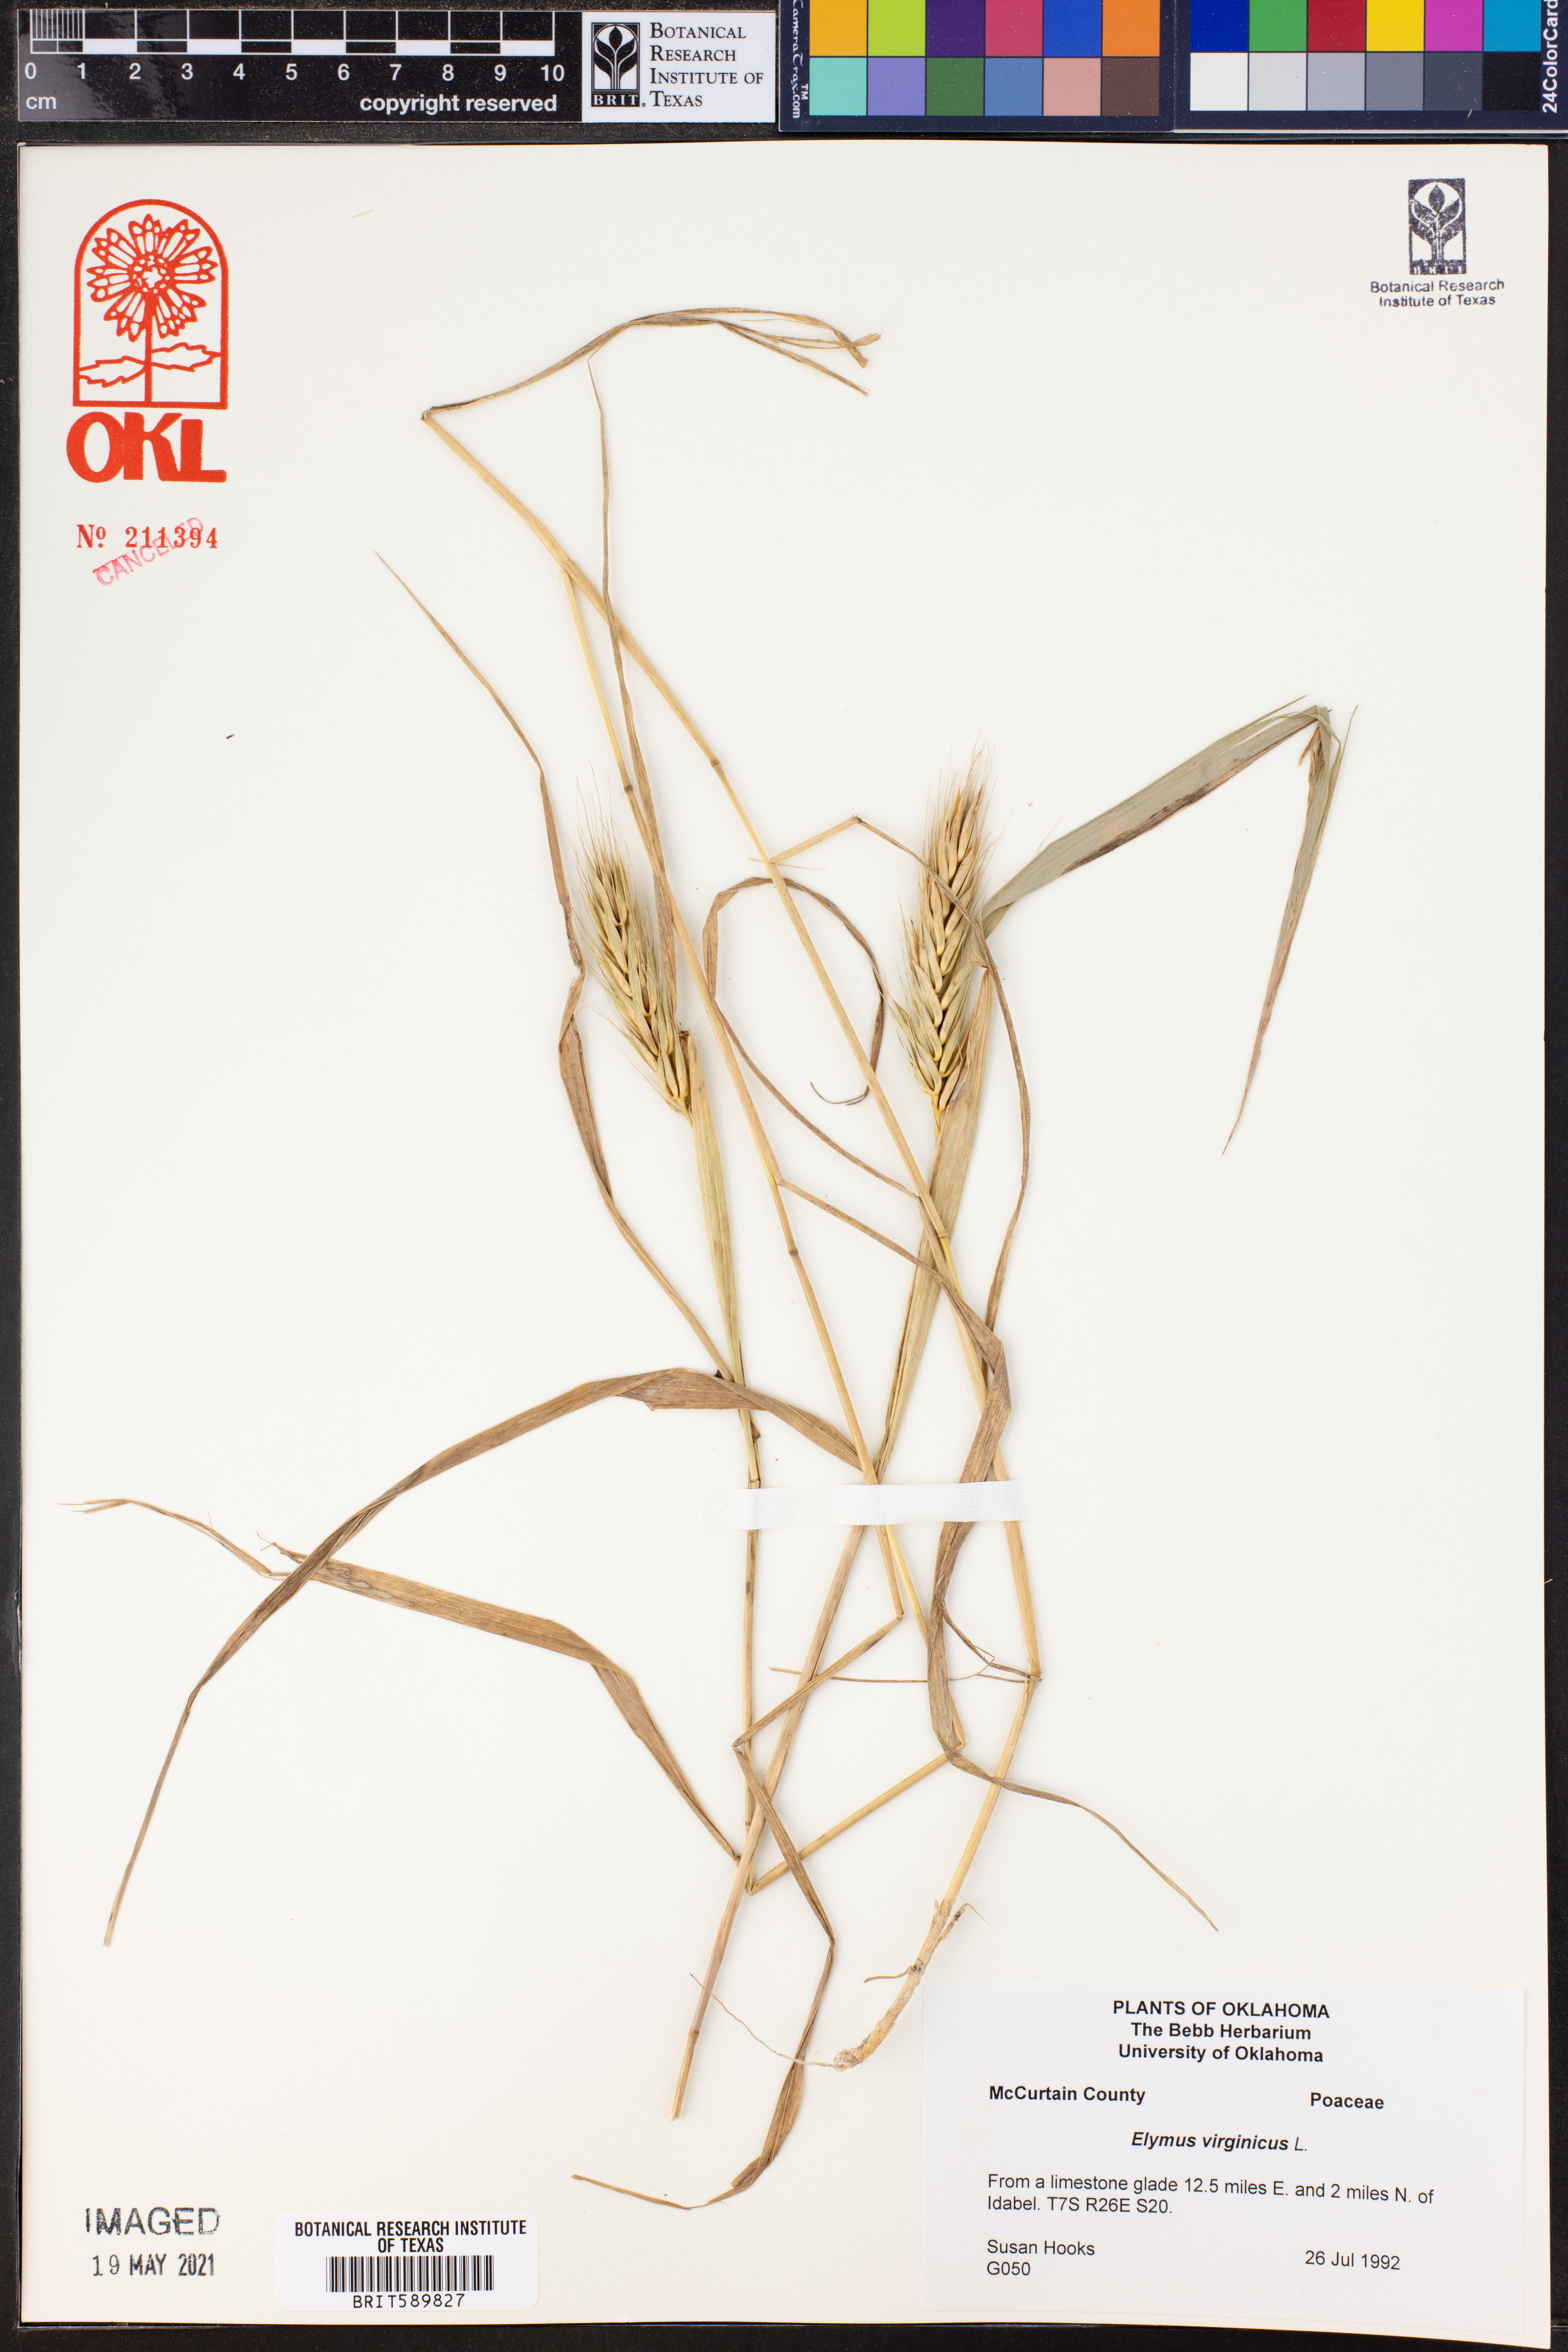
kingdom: Plantae
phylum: Tracheophyta
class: Liliopsida
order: Poales
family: Poaceae
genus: Elymus
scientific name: Elymus virginicus
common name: Common eastern wildrye
